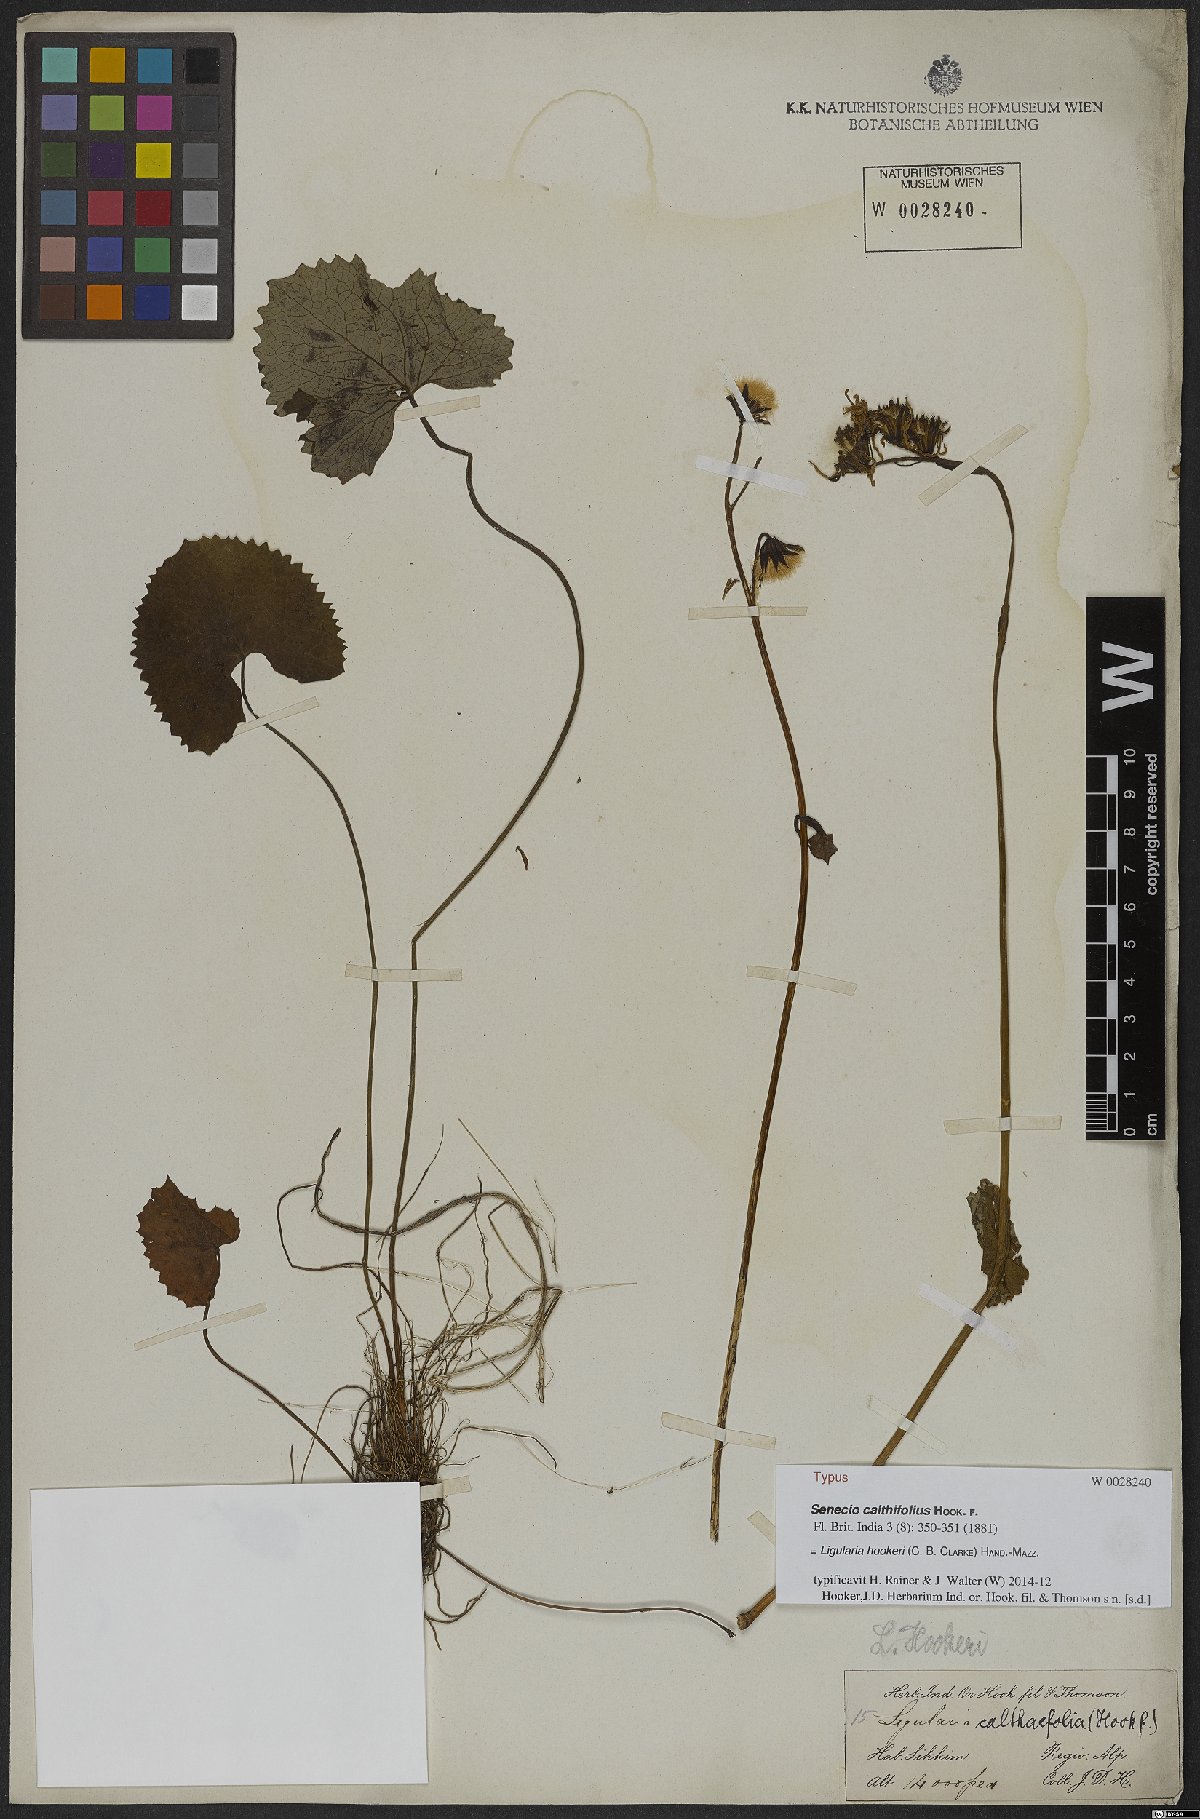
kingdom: Plantae
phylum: Tracheophyta
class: Magnoliopsida
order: Asterales
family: Asteraceae
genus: Ligularia
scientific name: Ligularia hookeri
